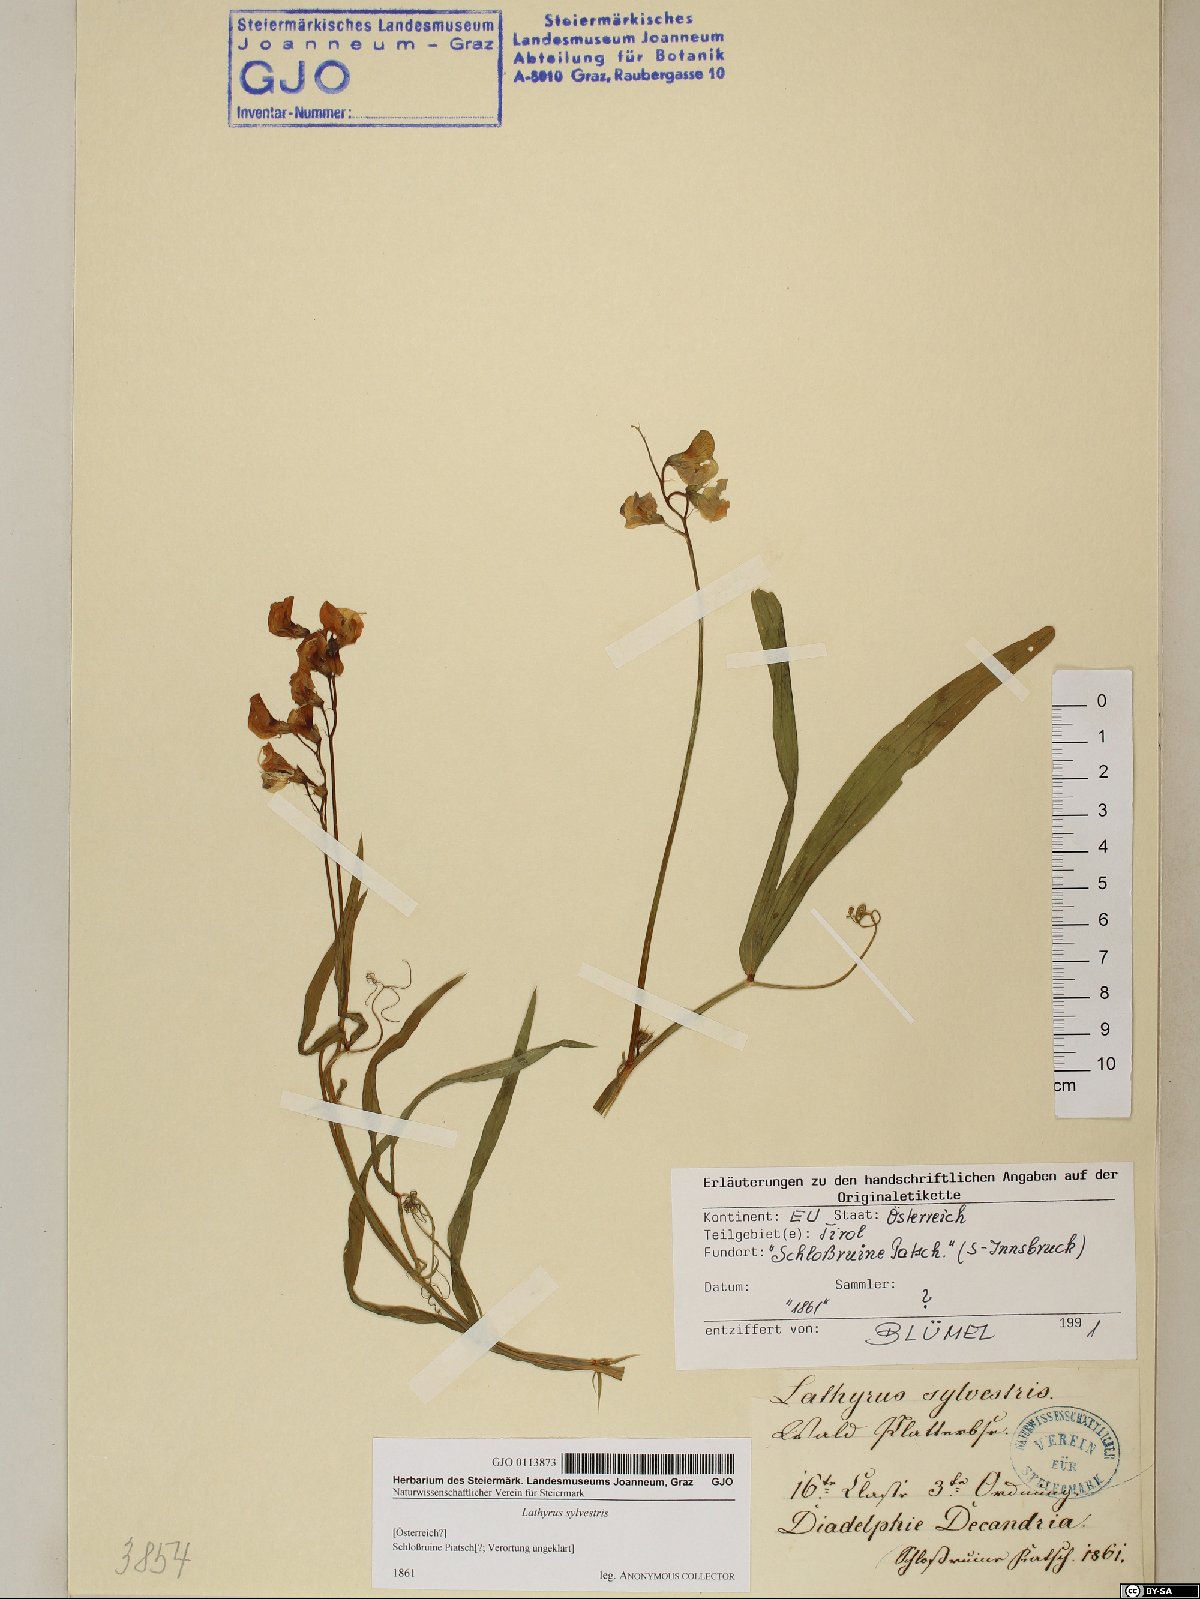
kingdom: Plantae
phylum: Tracheophyta
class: Magnoliopsida
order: Fabales
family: Fabaceae
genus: Lathyrus
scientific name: Lathyrus sylvestris
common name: Flat pea
